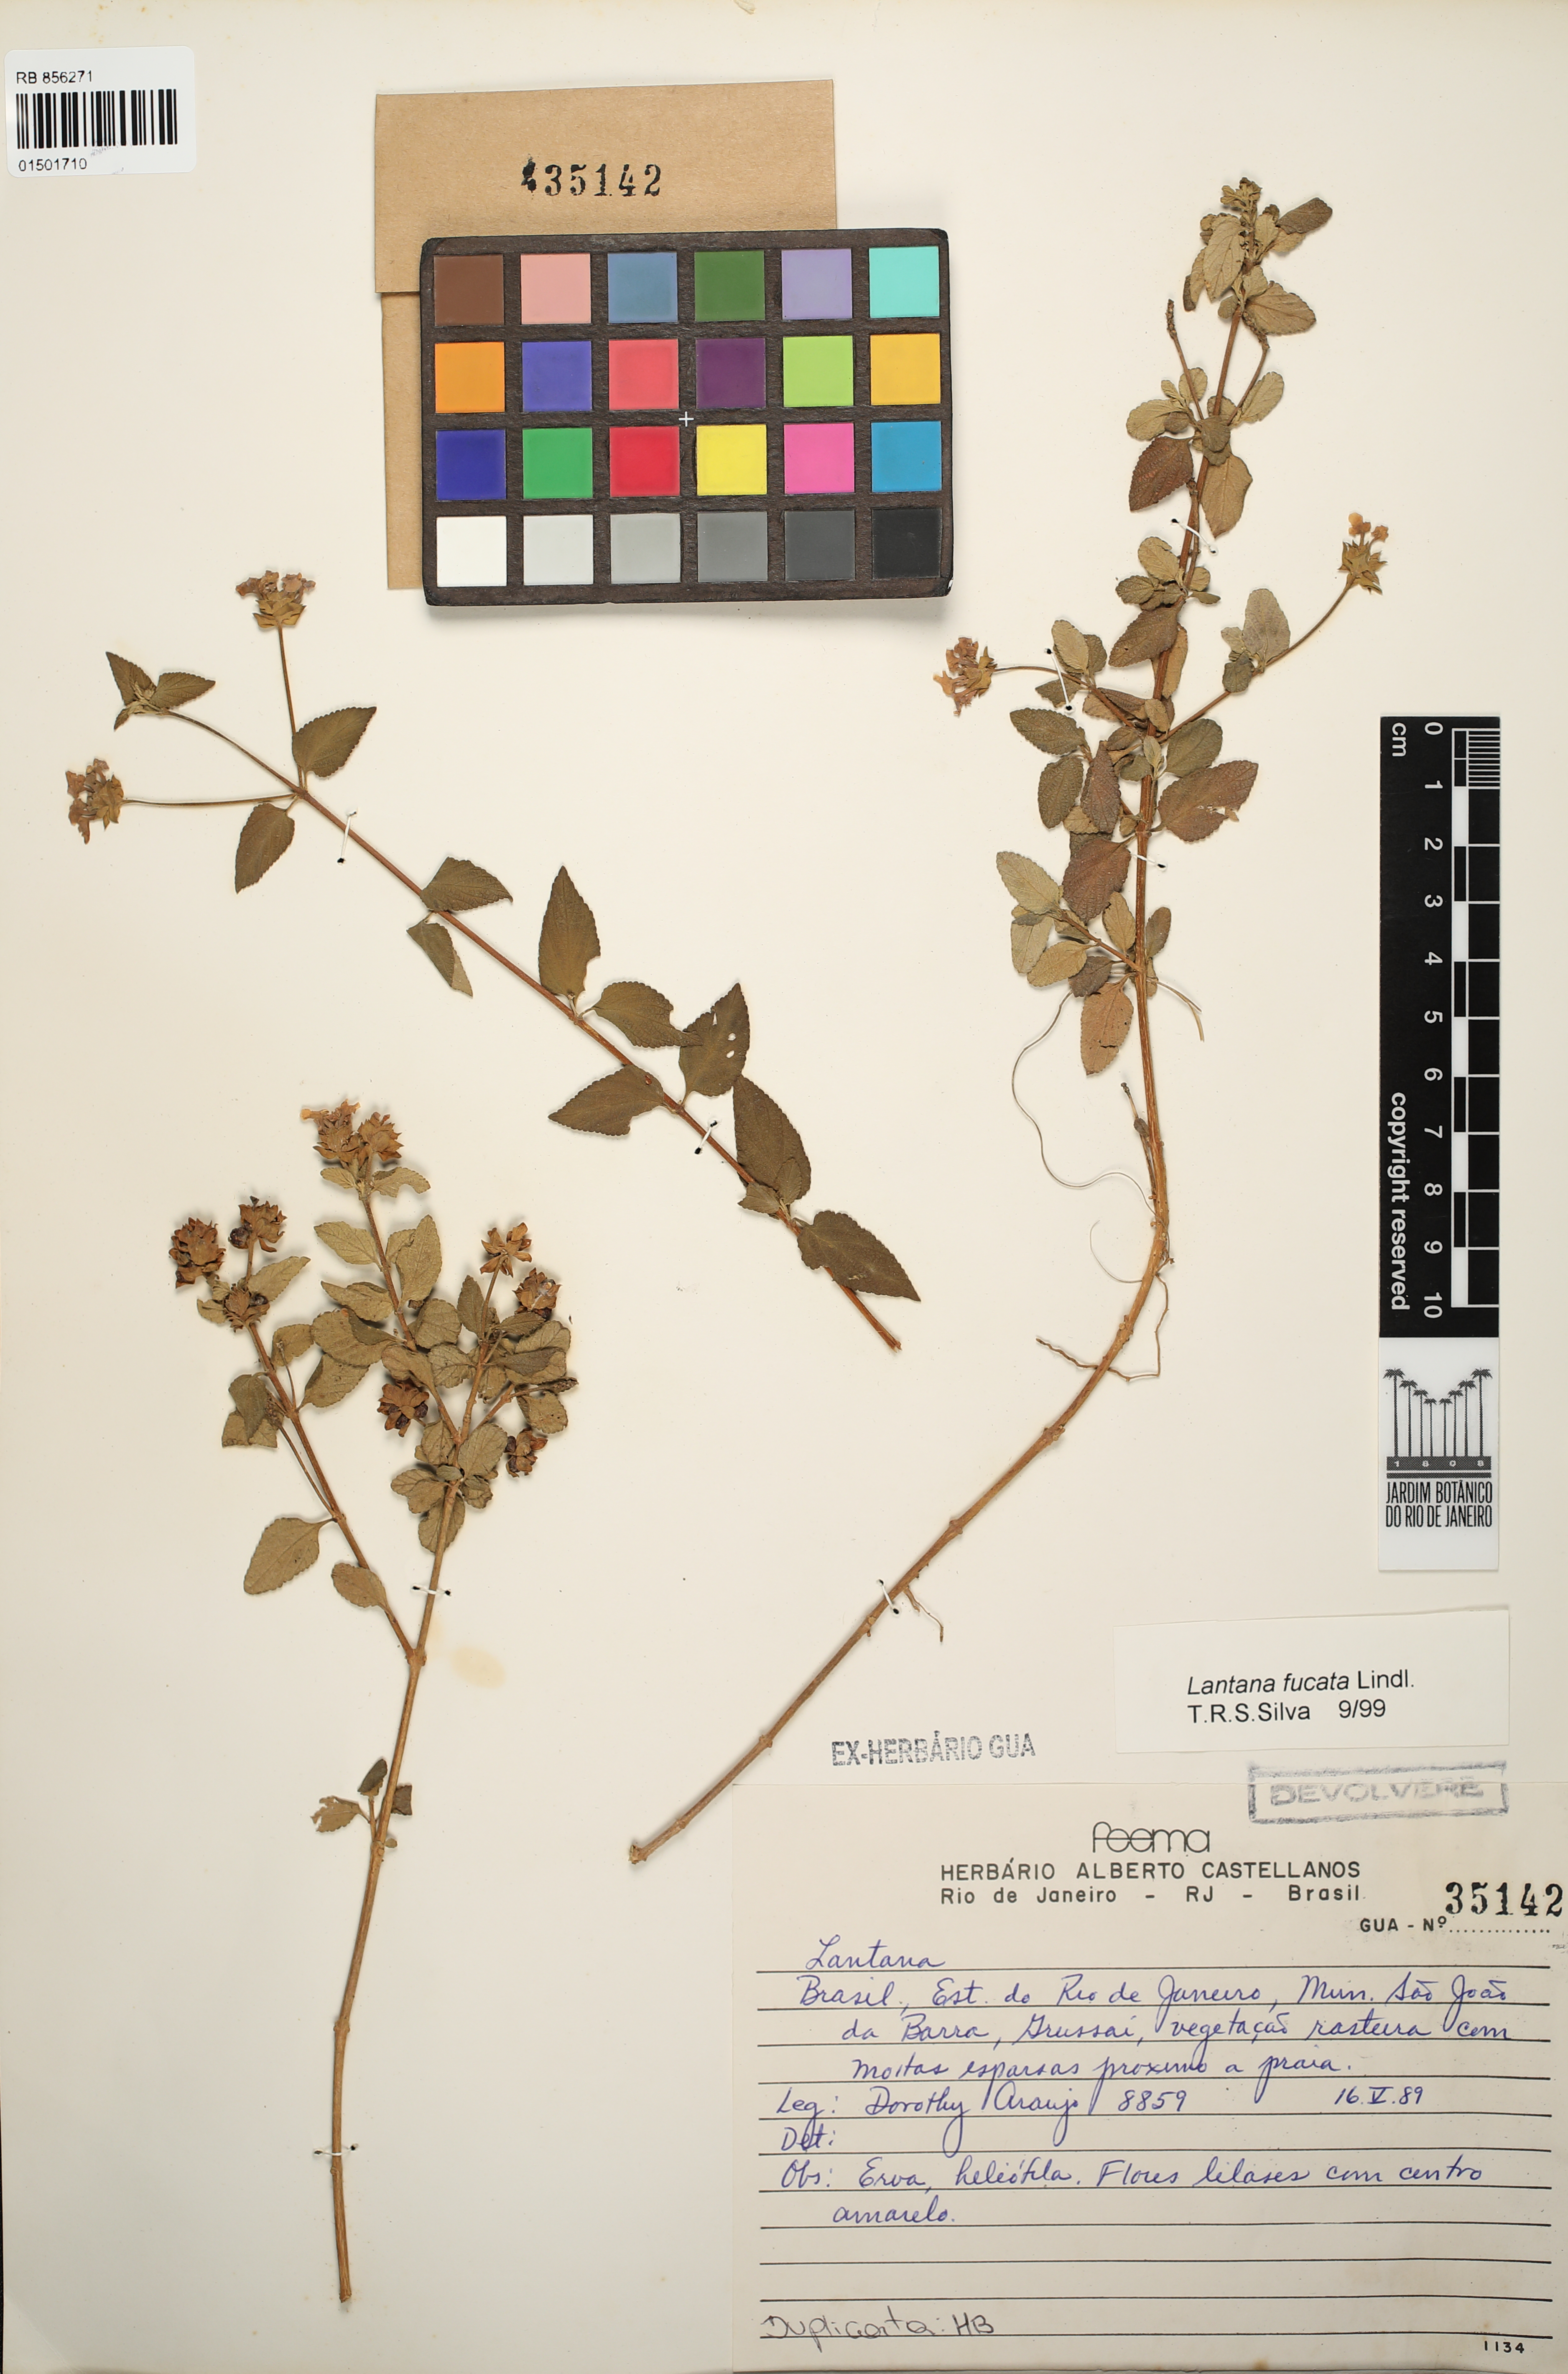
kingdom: Plantae
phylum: Tracheophyta
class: Magnoliopsida
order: Lamiales
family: Verbenaceae
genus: Lantana
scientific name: Lantana fucata
